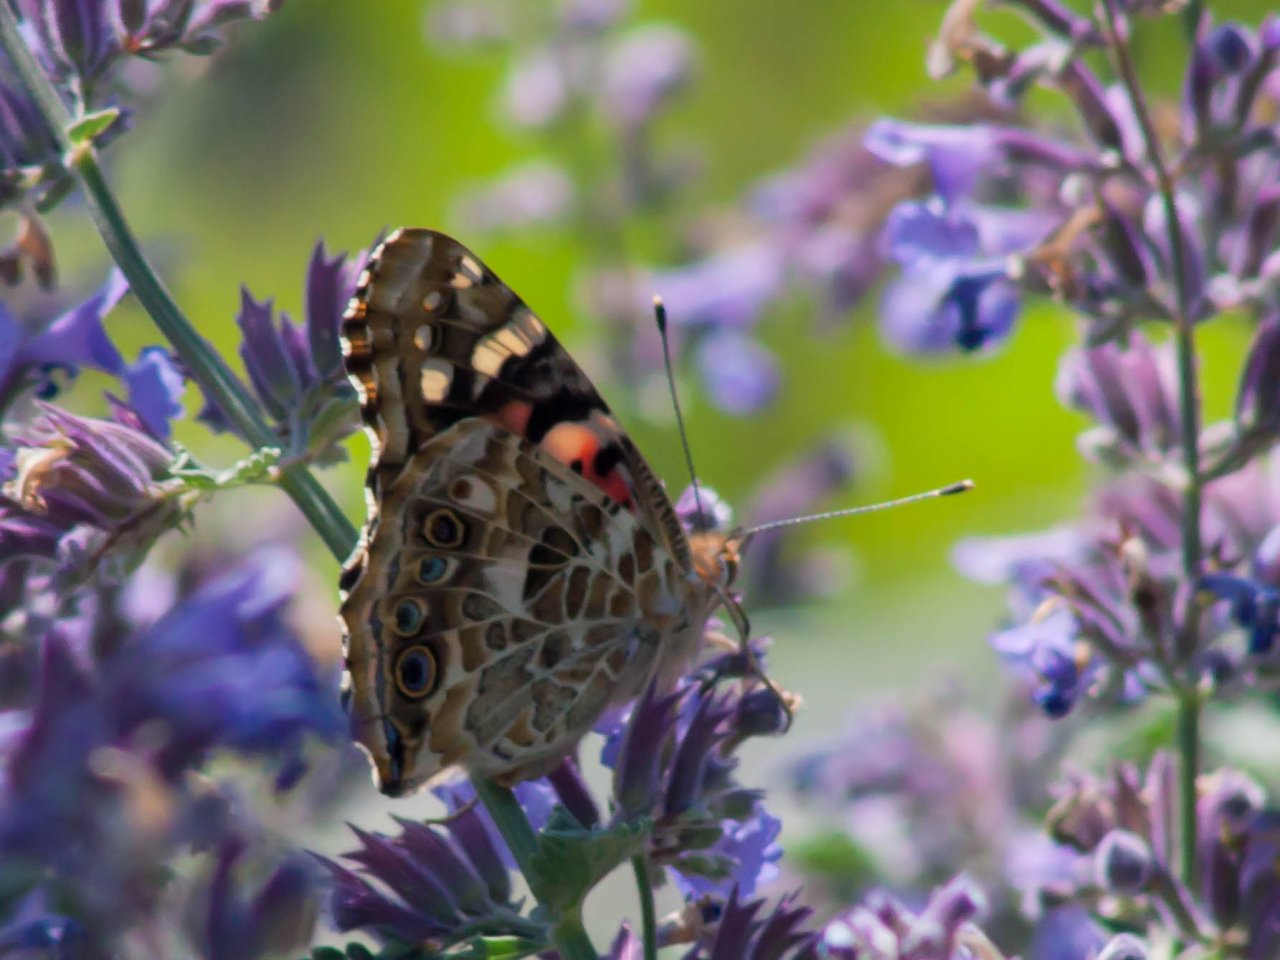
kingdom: Animalia
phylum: Arthropoda
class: Insecta
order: Lepidoptera
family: Nymphalidae
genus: Vanessa
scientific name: Vanessa cardui
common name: Painted Lady
